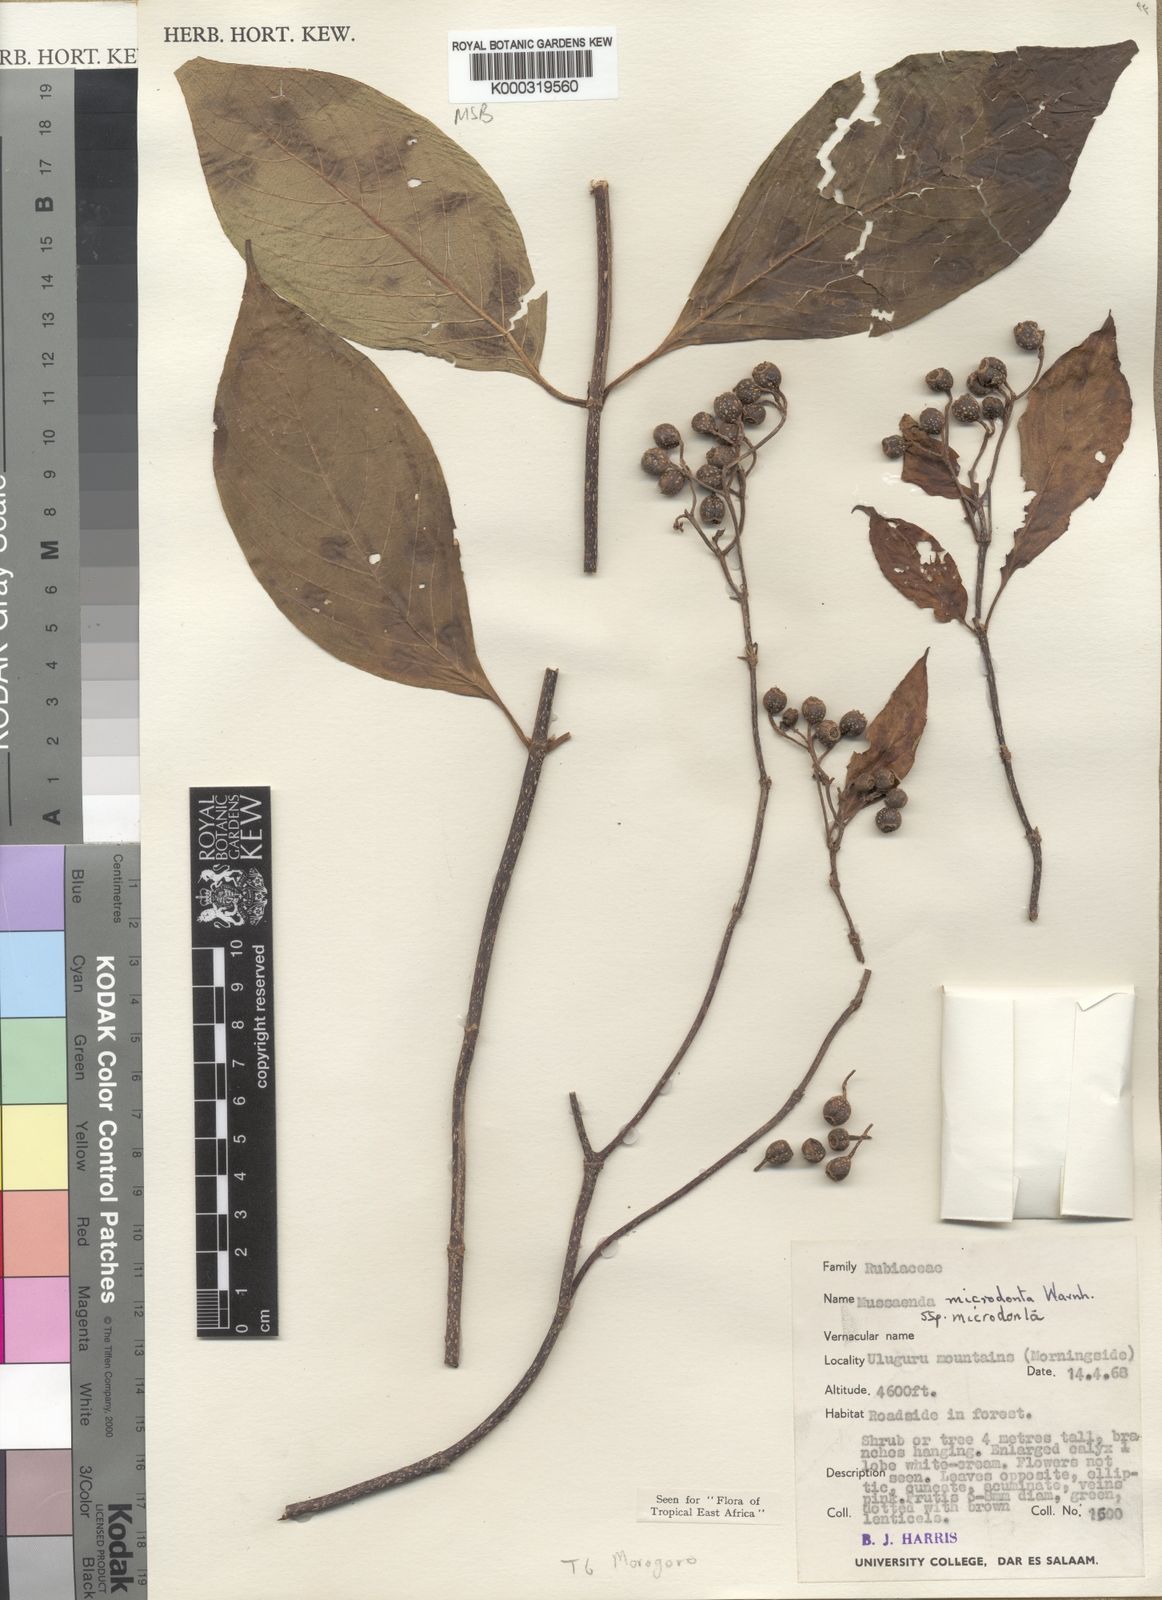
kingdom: Plantae
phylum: Tracheophyta
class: Magnoliopsida
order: Gentianales
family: Rubiaceae
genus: Mussaenda
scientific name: Mussaenda microdonta
